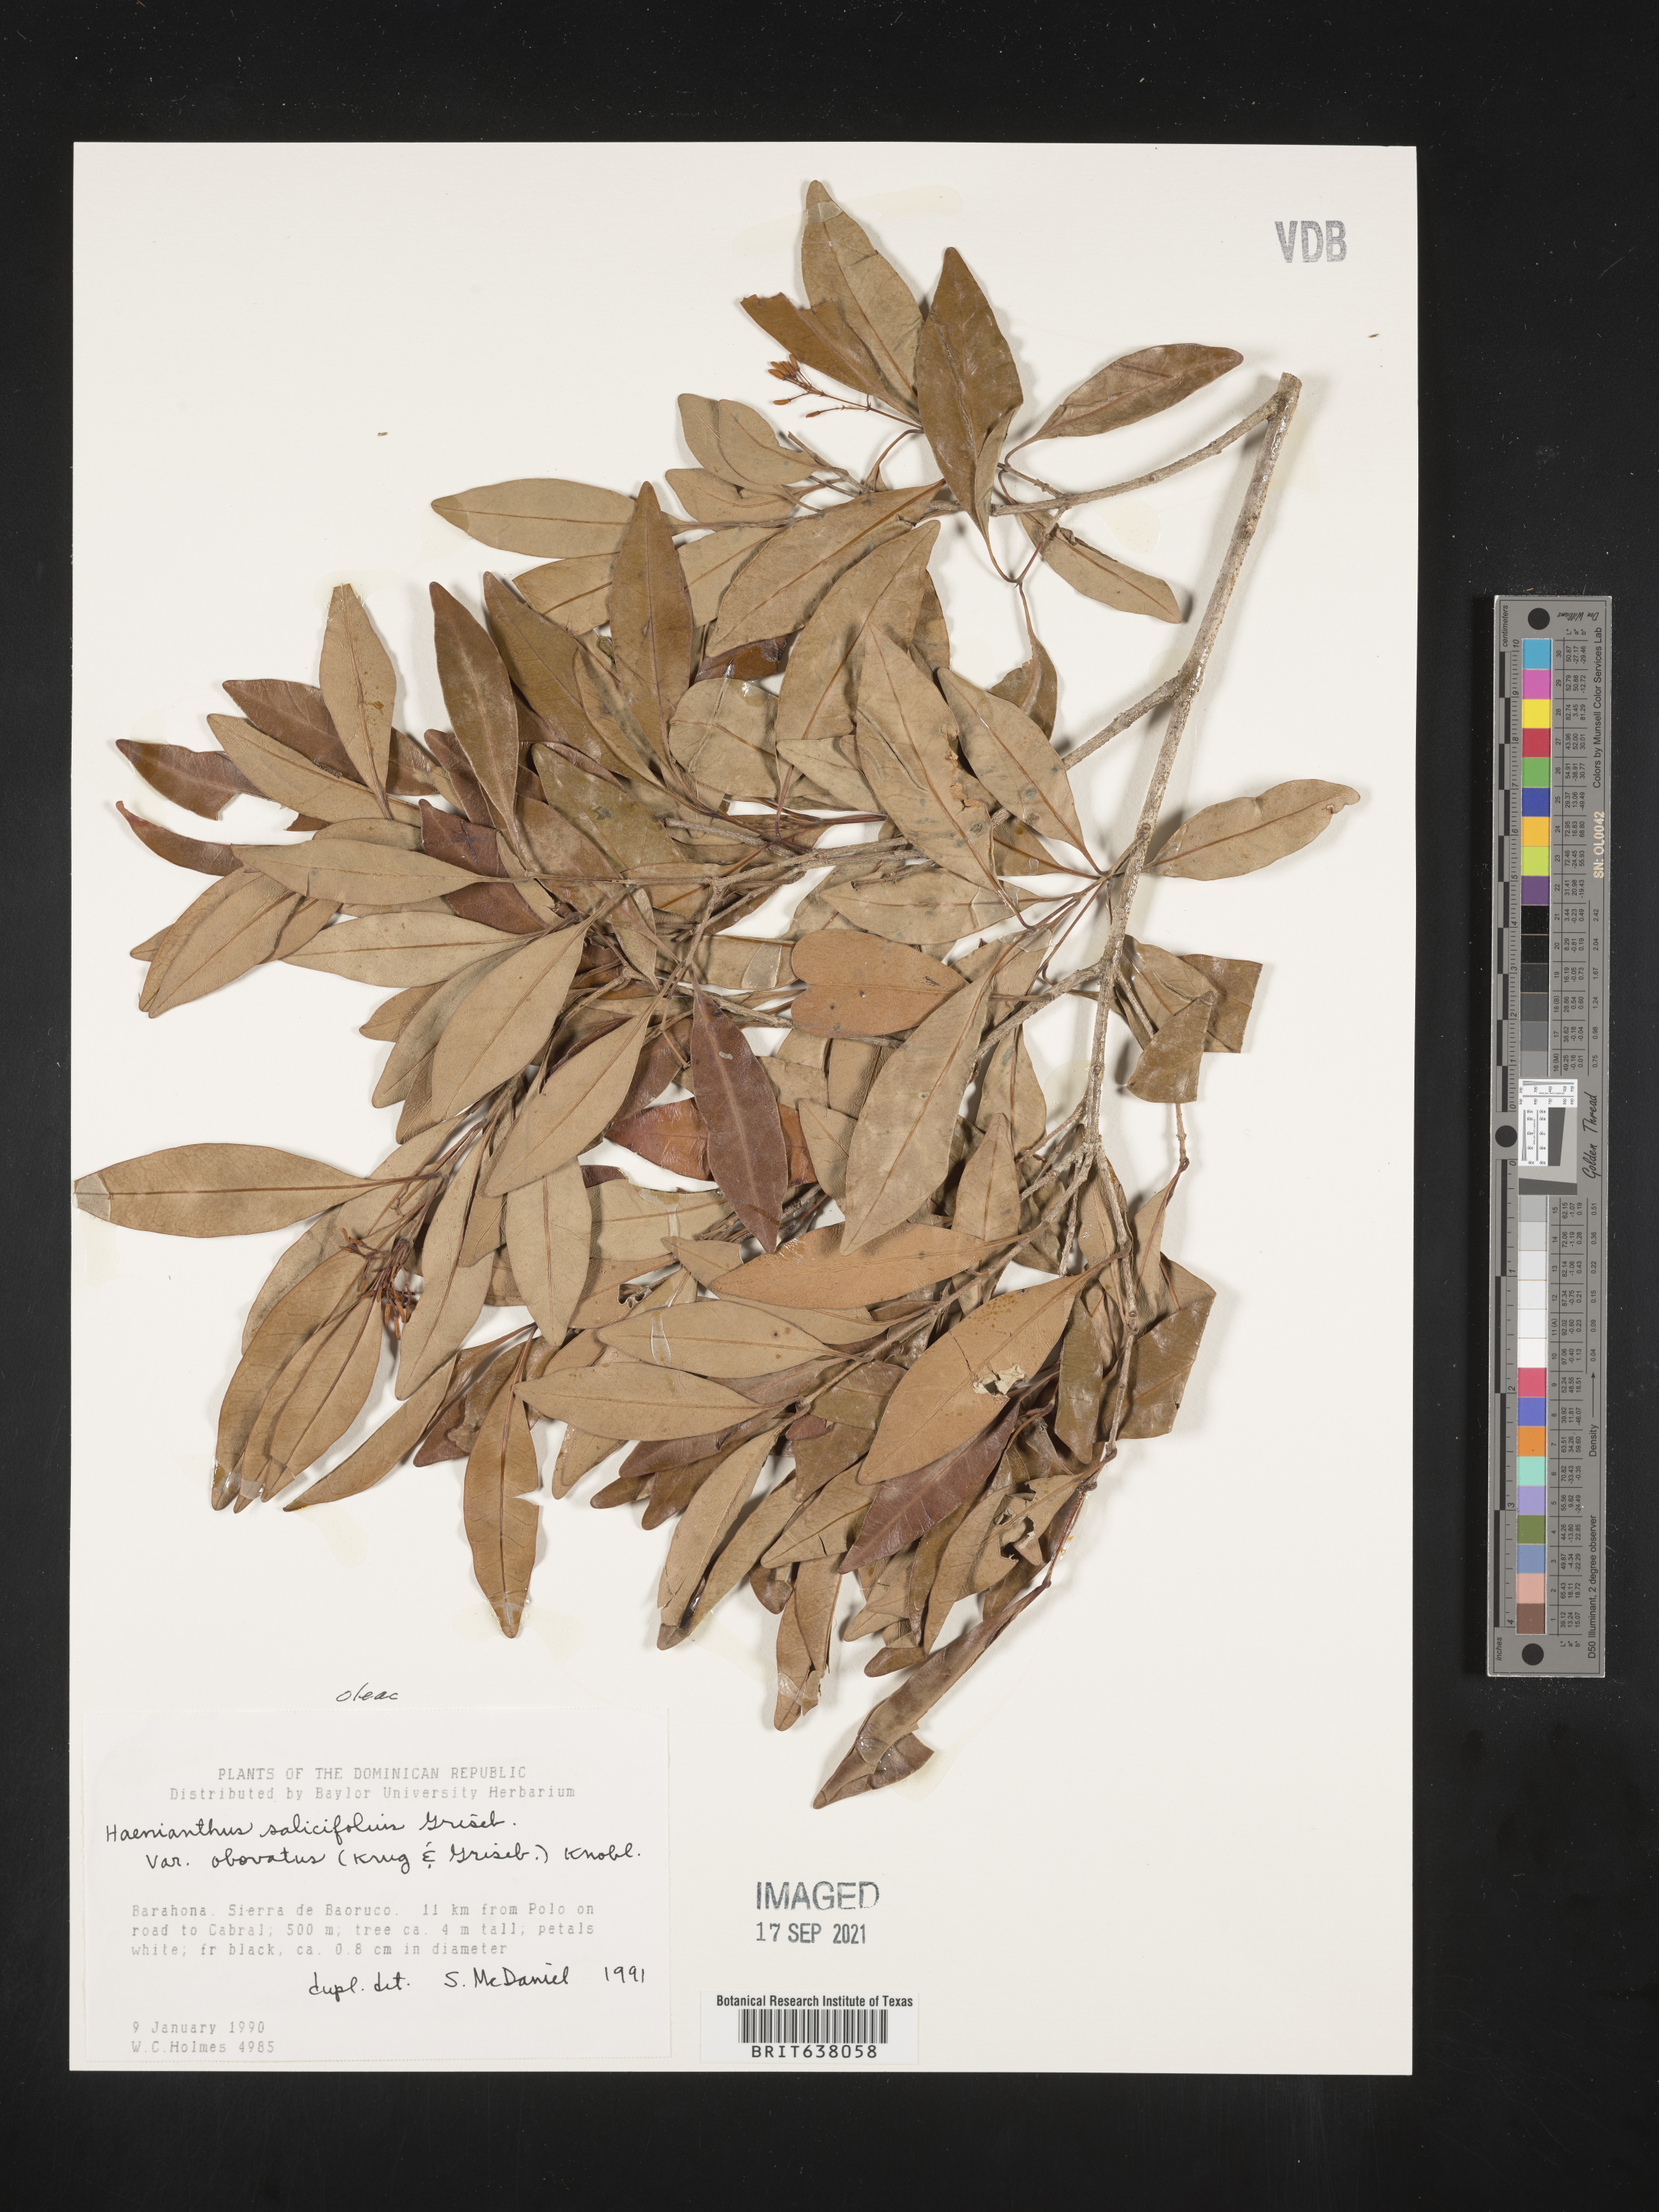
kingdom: Plantae
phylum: Tracheophyta
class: Magnoliopsida
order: Lamiales
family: Oleaceae
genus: Haenianthus
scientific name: Haenianthus
